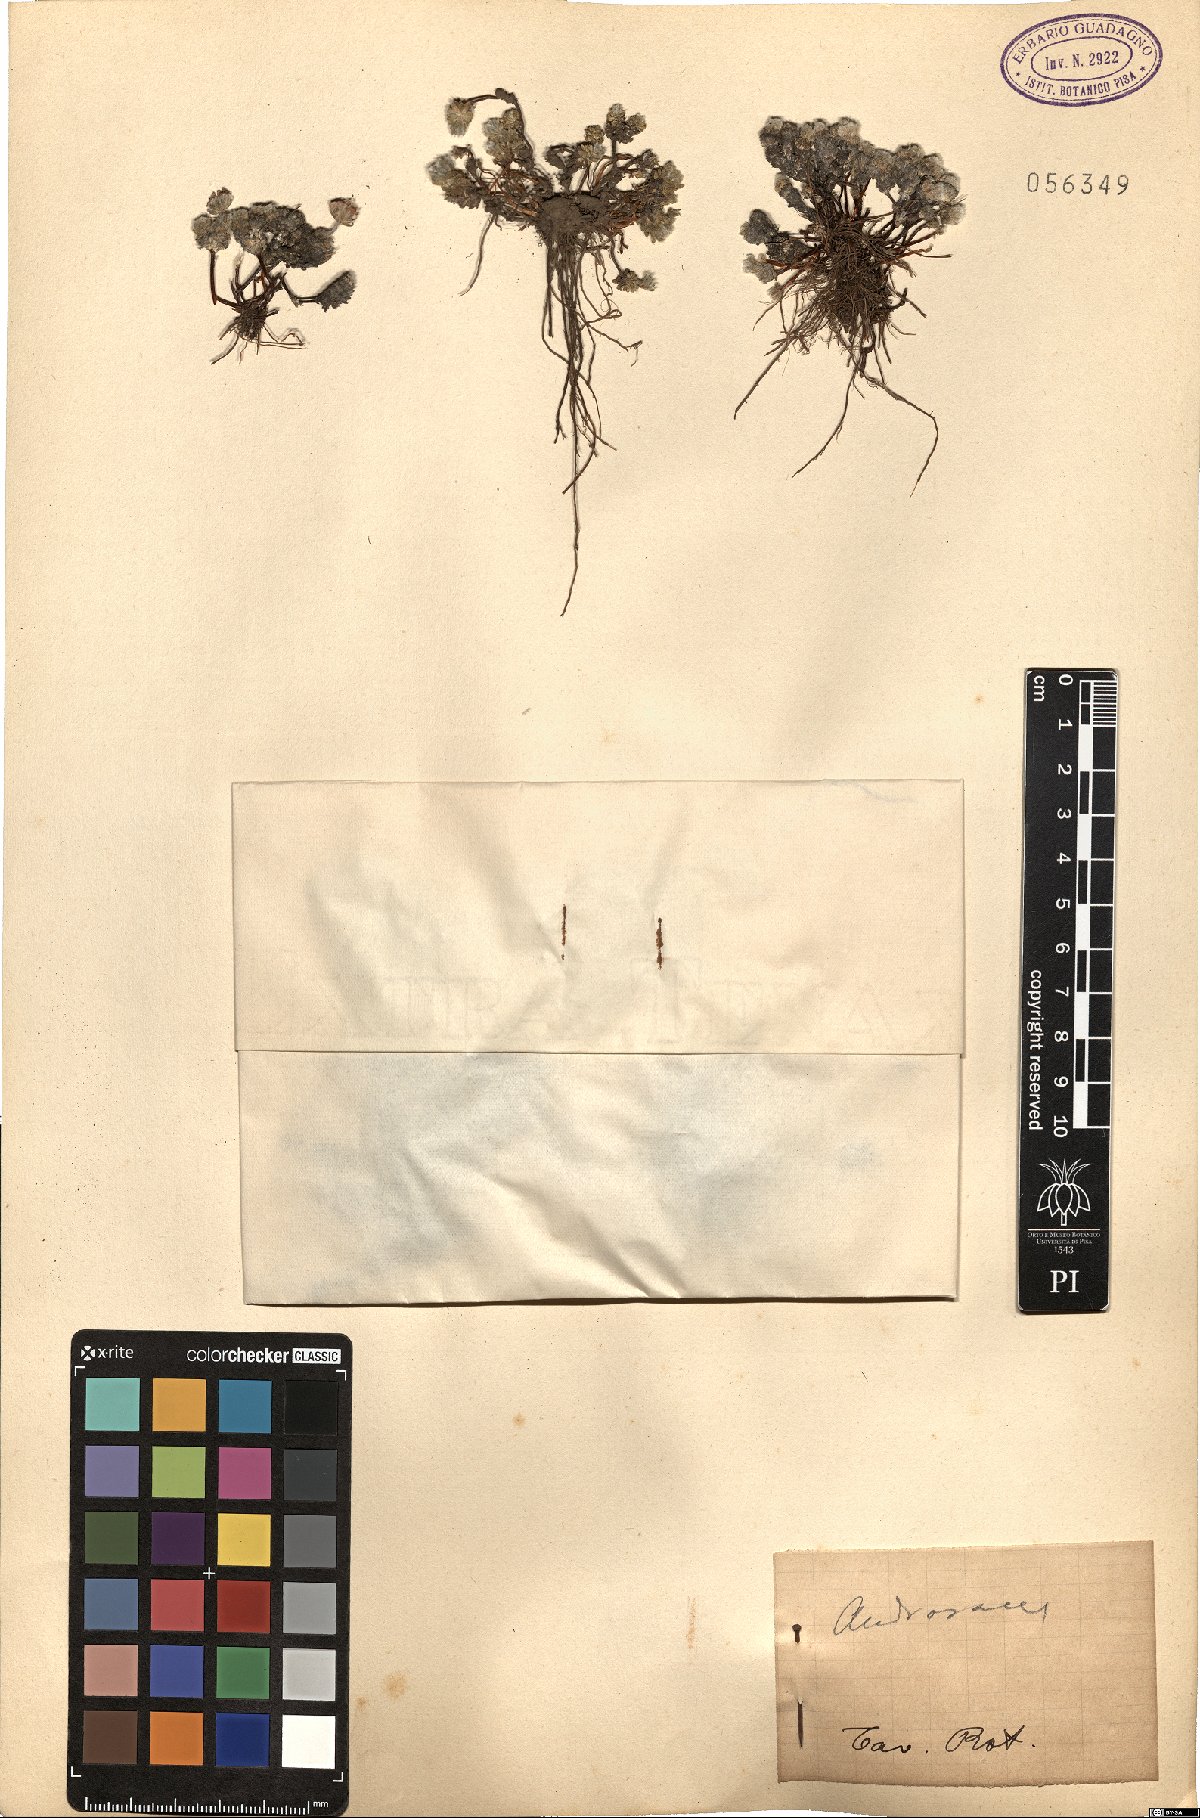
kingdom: Plantae
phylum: Tracheophyta
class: Magnoliopsida
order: Ericales
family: Primulaceae
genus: Androsace
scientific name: Androsace
